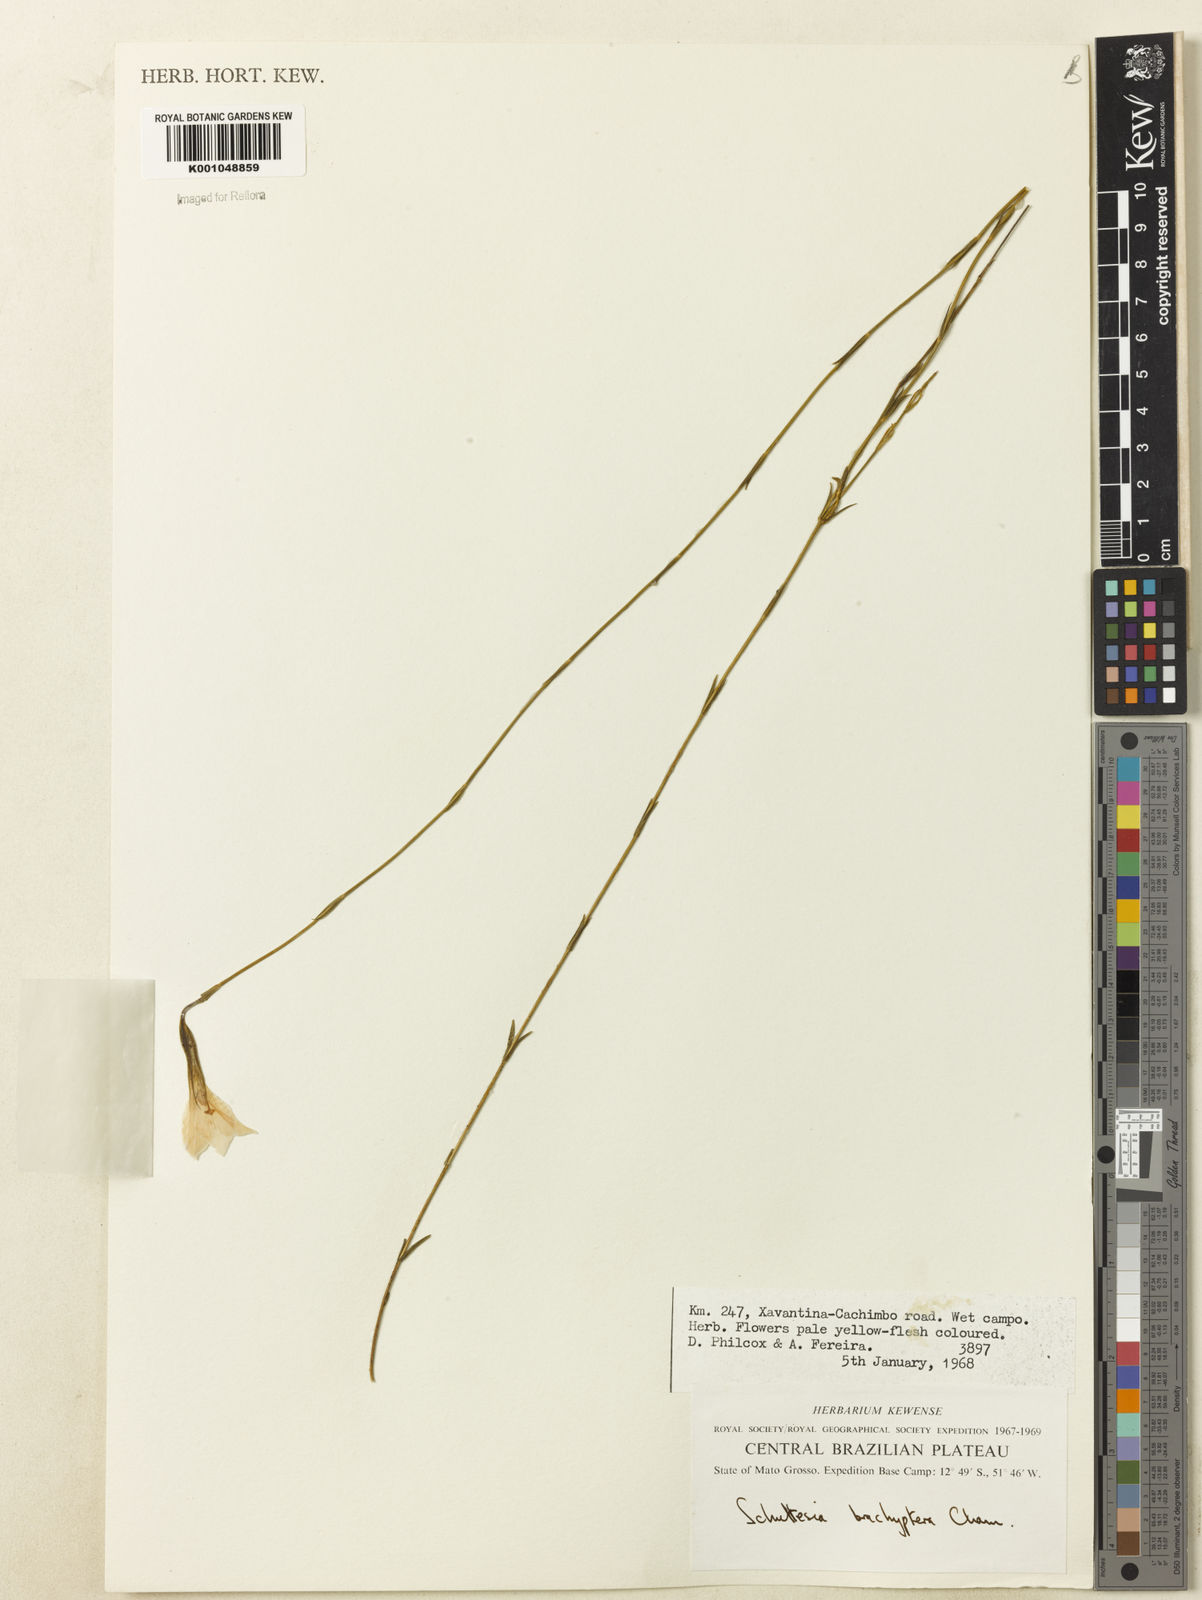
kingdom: Plantae
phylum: Tracheophyta
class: Magnoliopsida
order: Gentianales
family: Gentianaceae
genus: Schultesia
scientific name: Schultesia brachyptera
